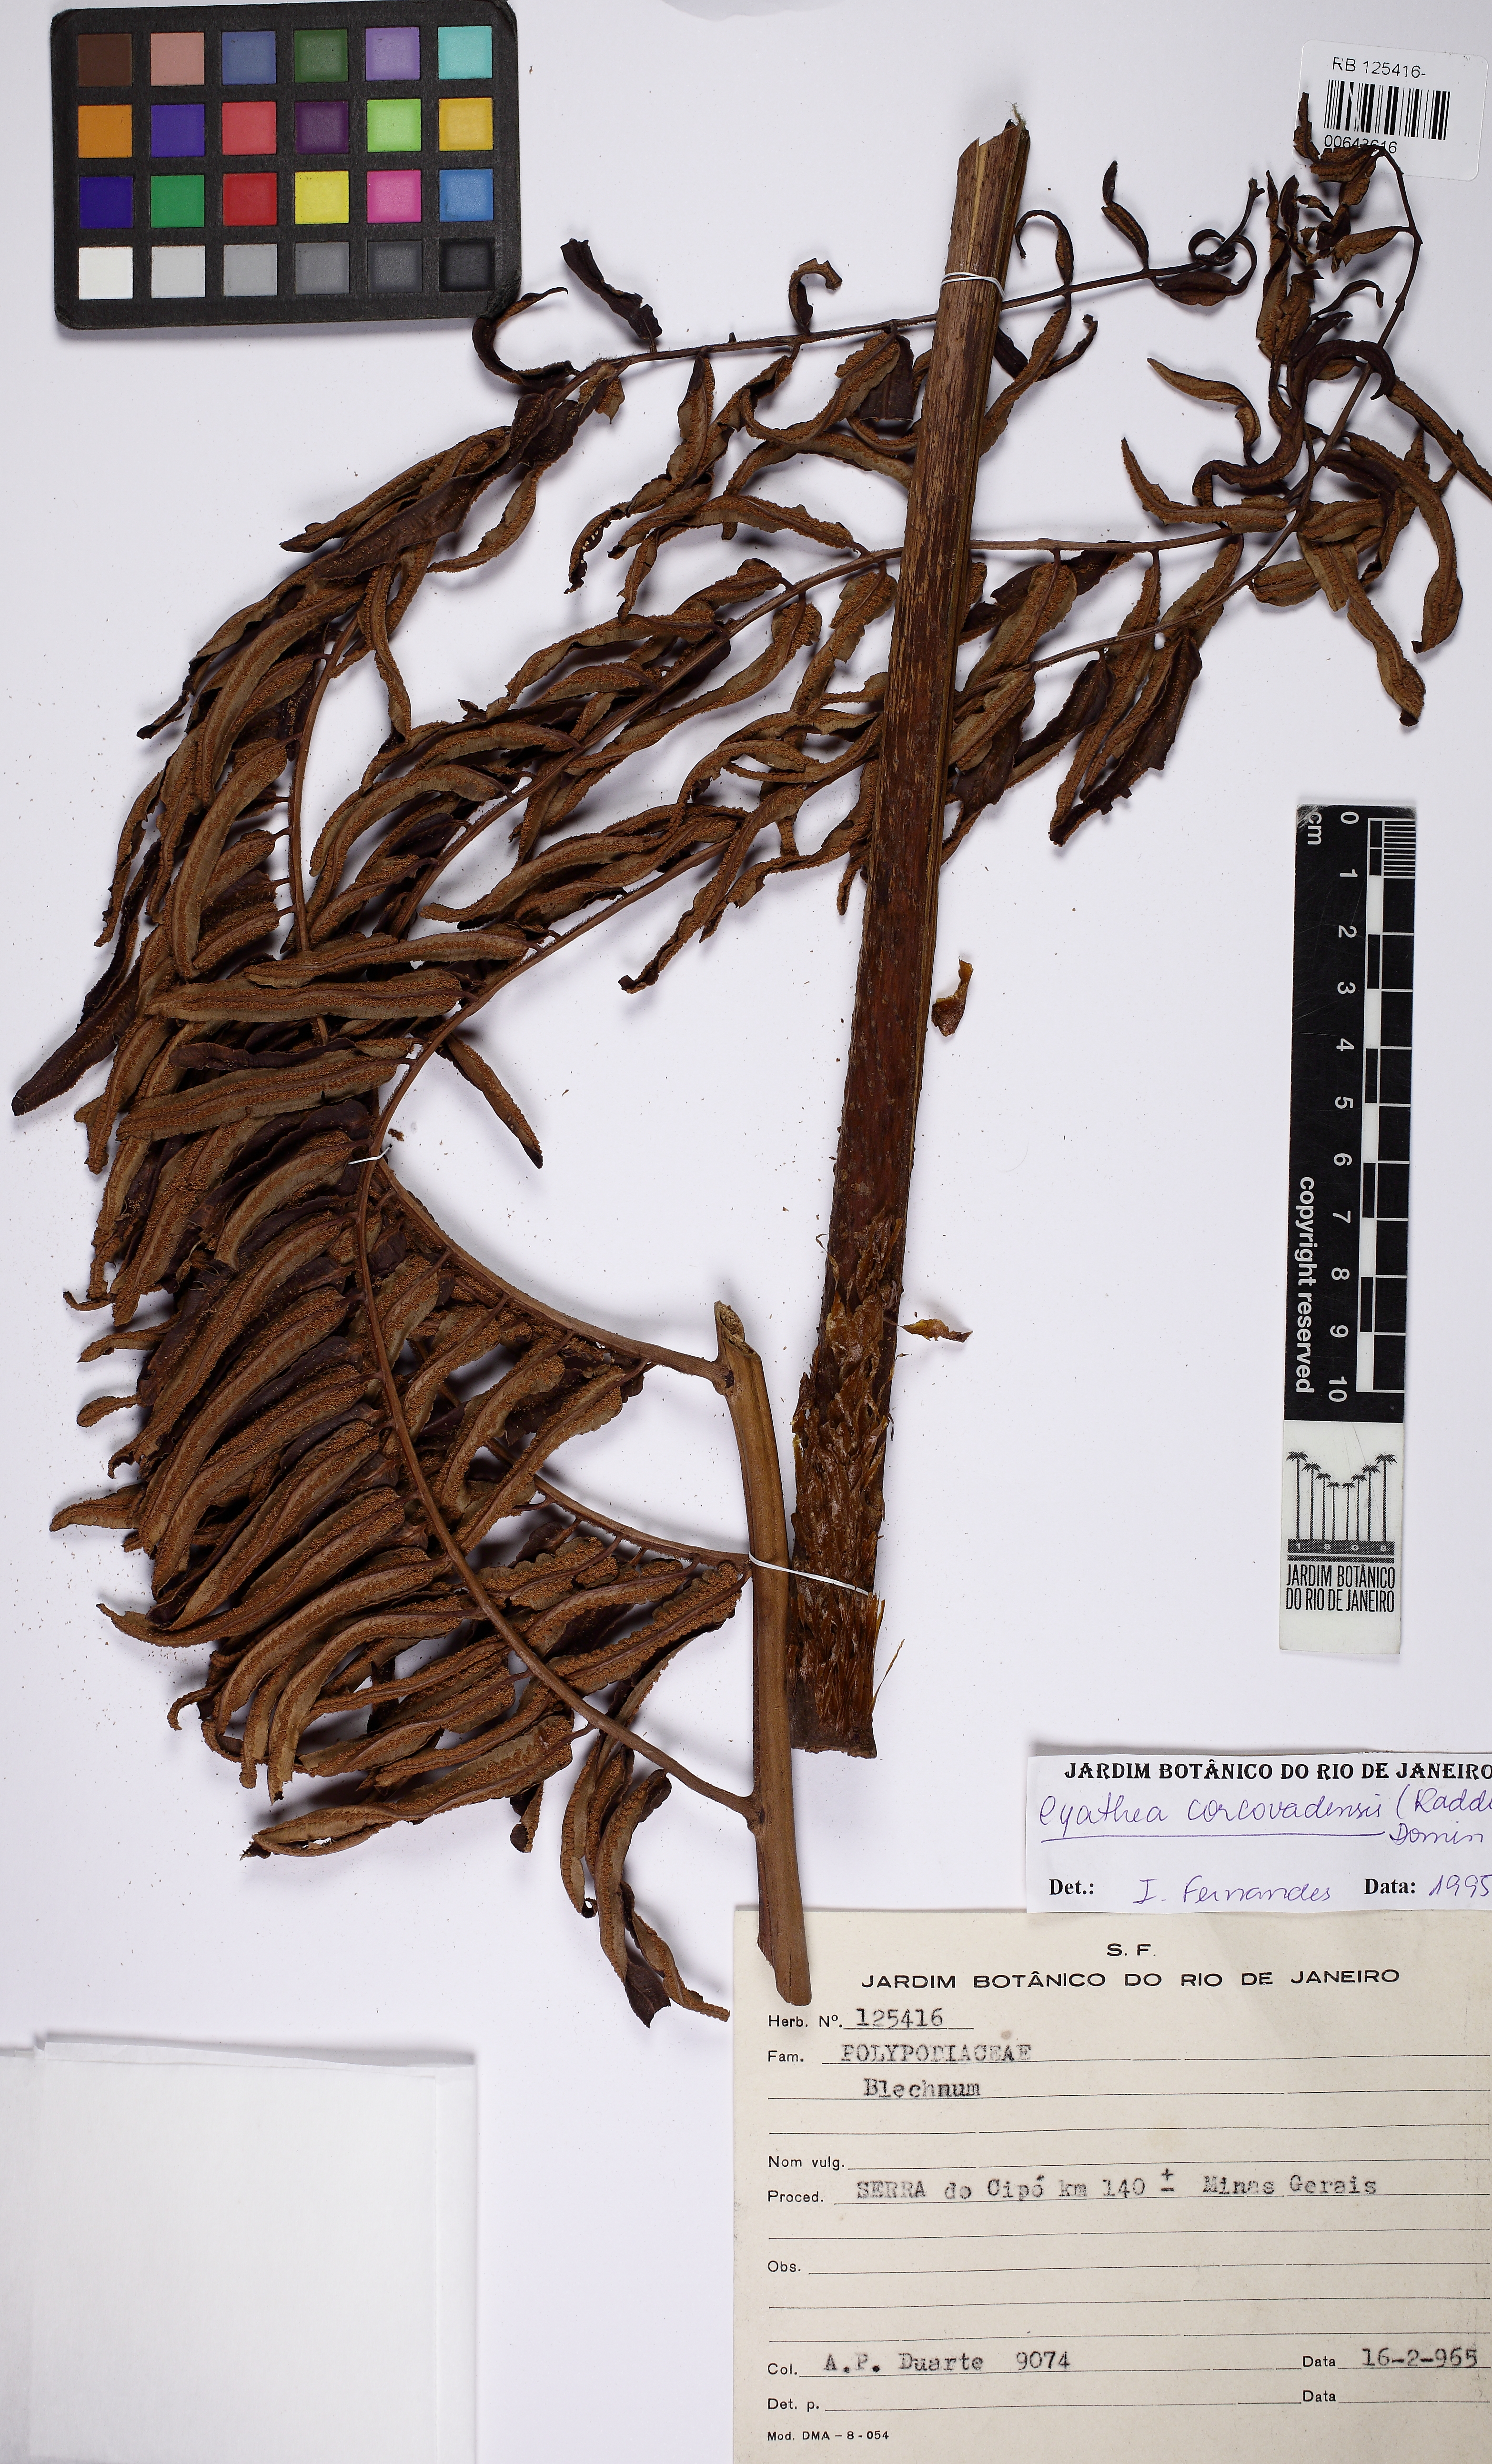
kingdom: Plantae
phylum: Tracheophyta
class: Polypodiopsida
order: Cyatheales
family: Cyatheaceae
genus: Cyathea
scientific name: Cyathea corcovadensis
